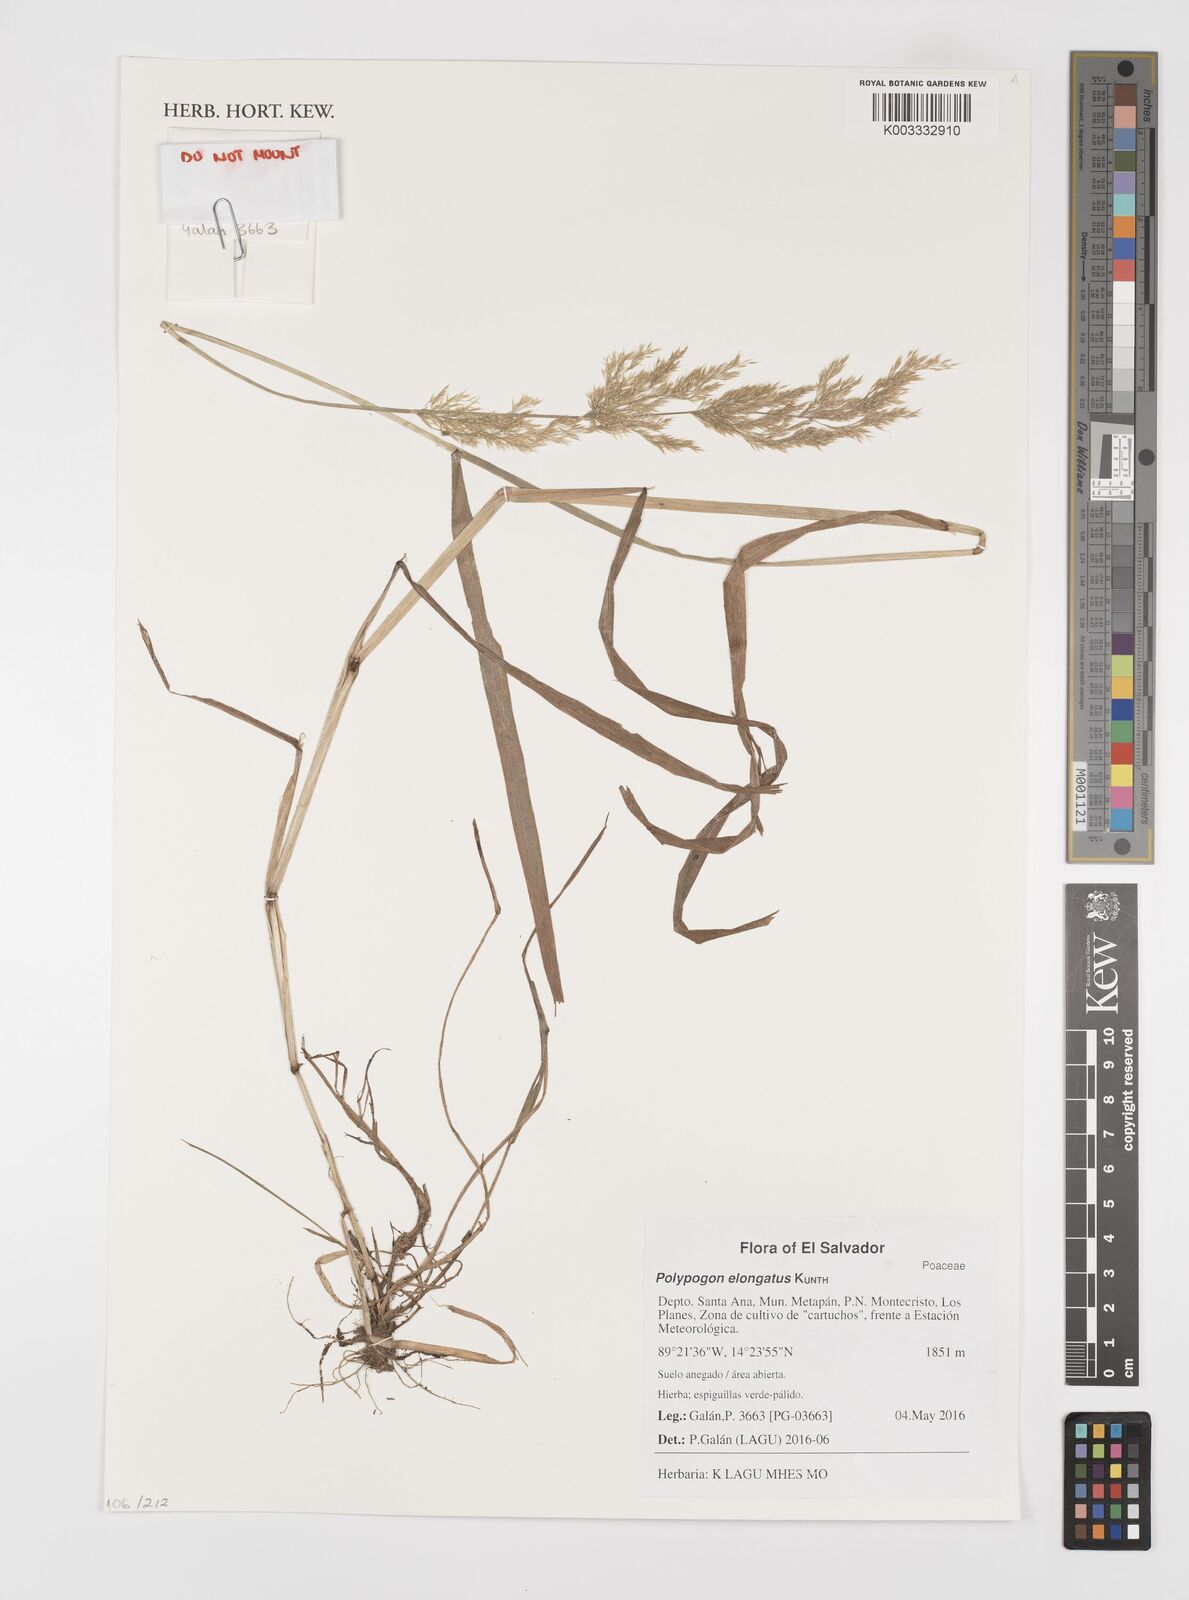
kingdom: Plantae
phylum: Tracheophyta
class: Liliopsida
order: Poales
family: Poaceae
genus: Polypogon
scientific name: Polypogon elongatus
